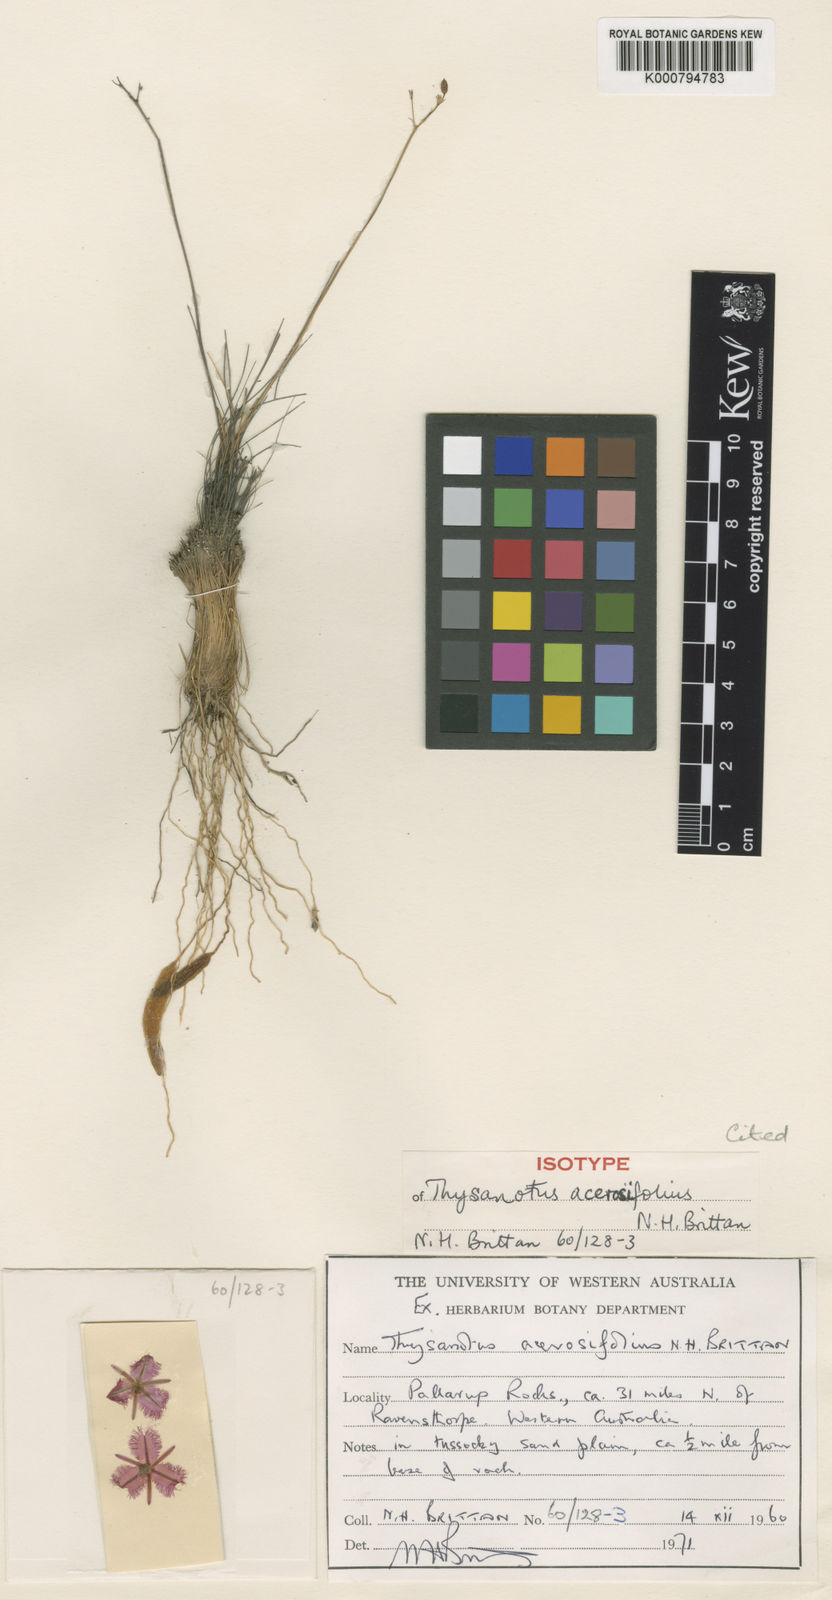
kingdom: Plantae
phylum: Tracheophyta
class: Liliopsida
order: Asparagales
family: Asparagaceae
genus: Thysanotus
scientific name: Thysanotus acerosifolius
